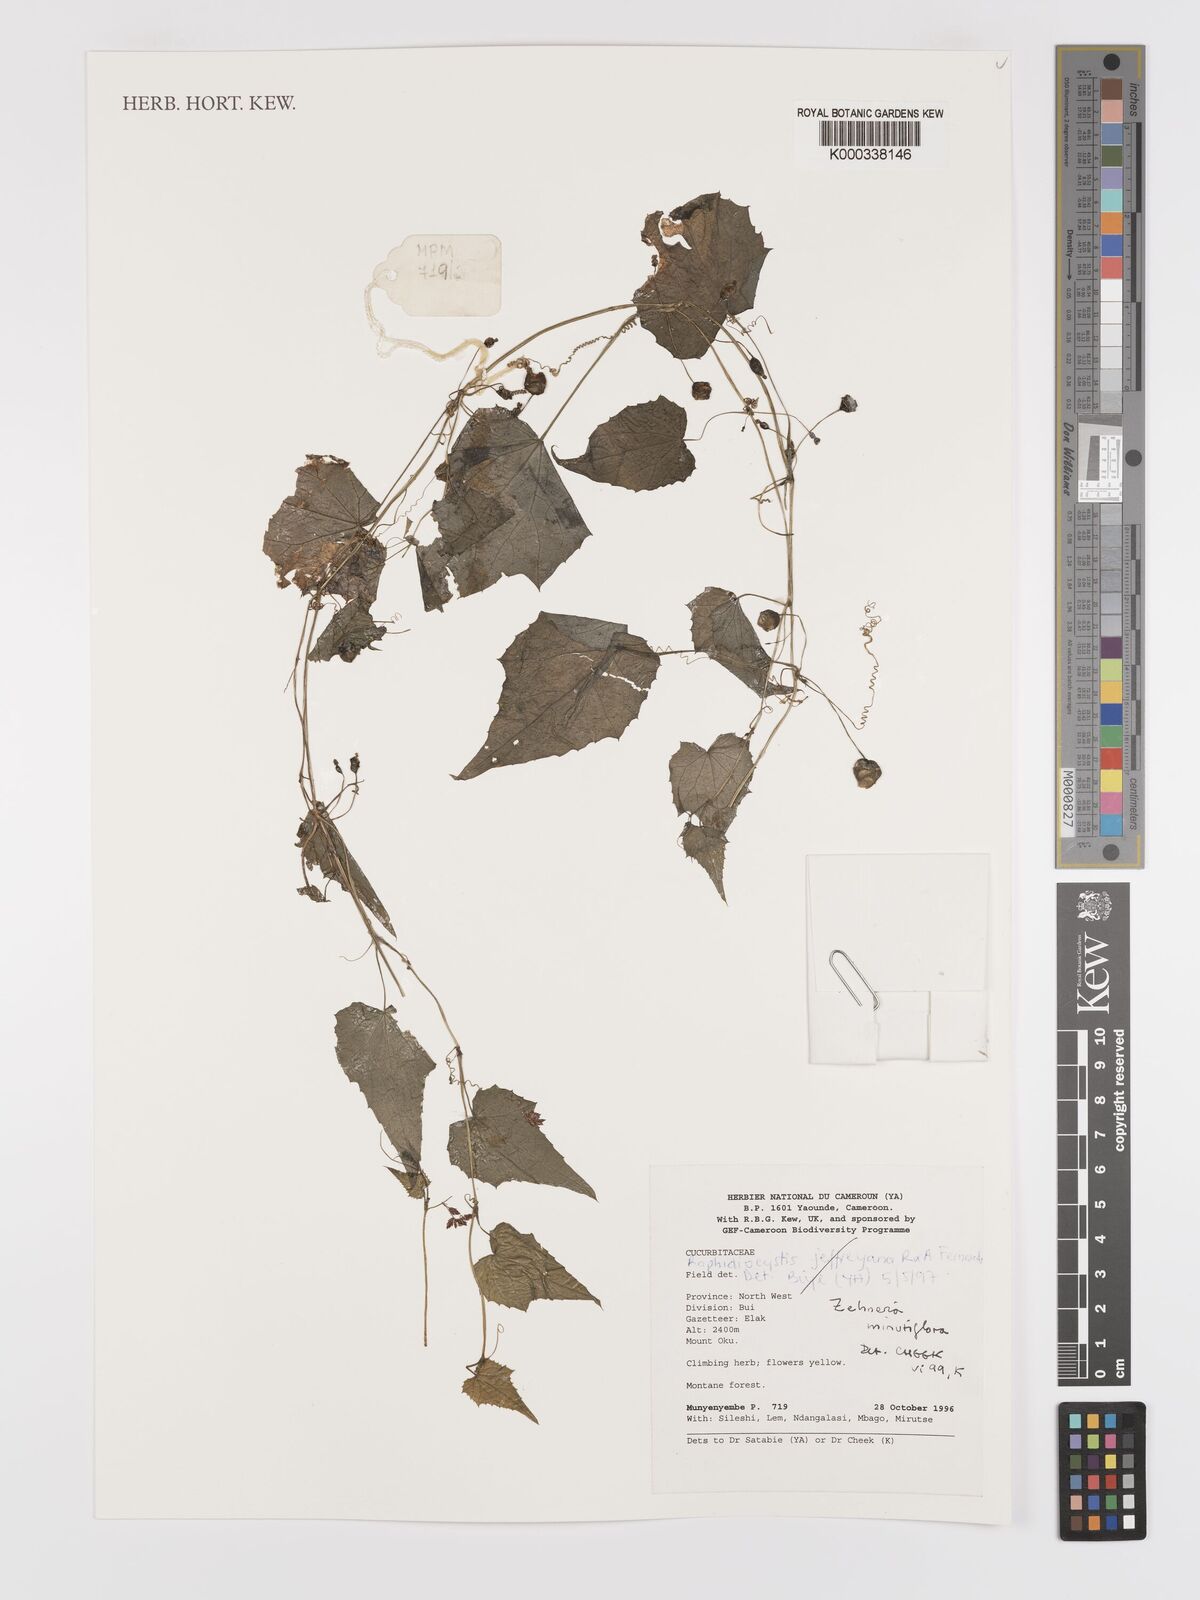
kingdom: Plantae
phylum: Tracheophyta
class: Magnoliopsida
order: Cucurbitales
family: Cucurbitaceae
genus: Zehneria
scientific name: Zehneria minutiflora
